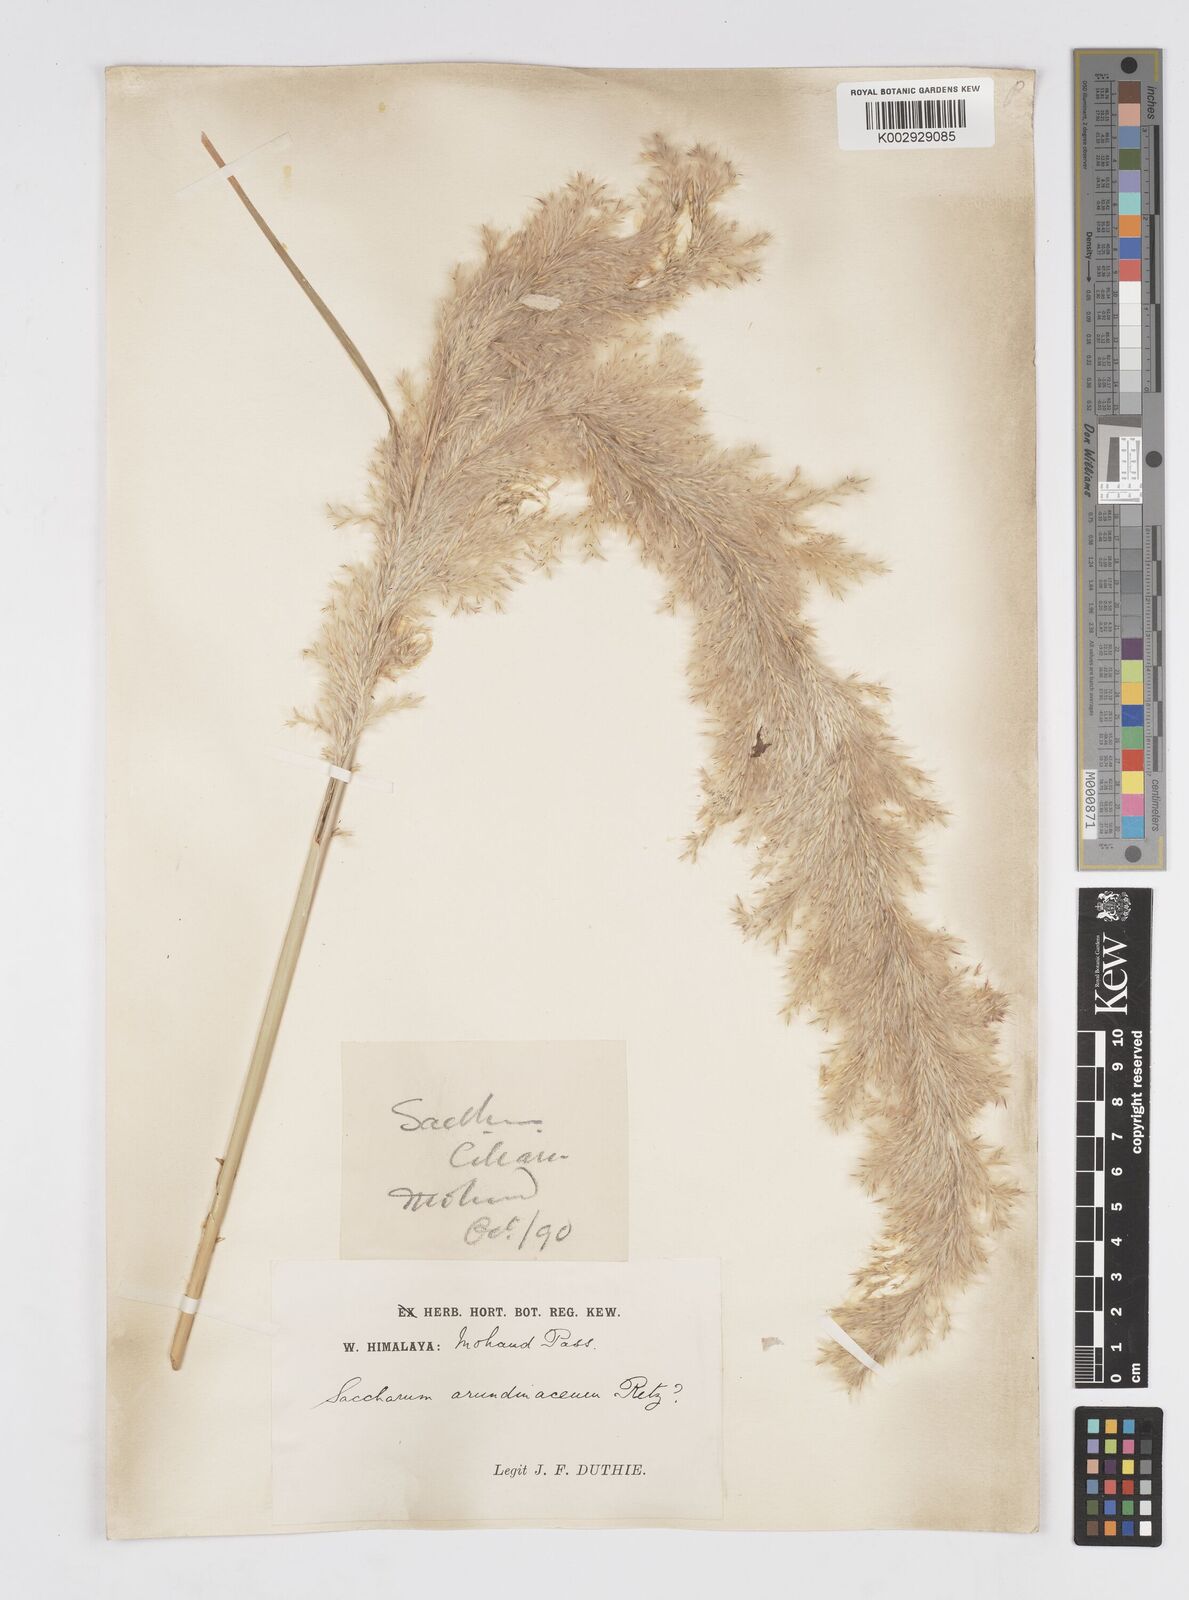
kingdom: Plantae
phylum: Tracheophyta
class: Liliopsida
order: Poales
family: Poaceae
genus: Tripidium
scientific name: Tripidium bengalense
